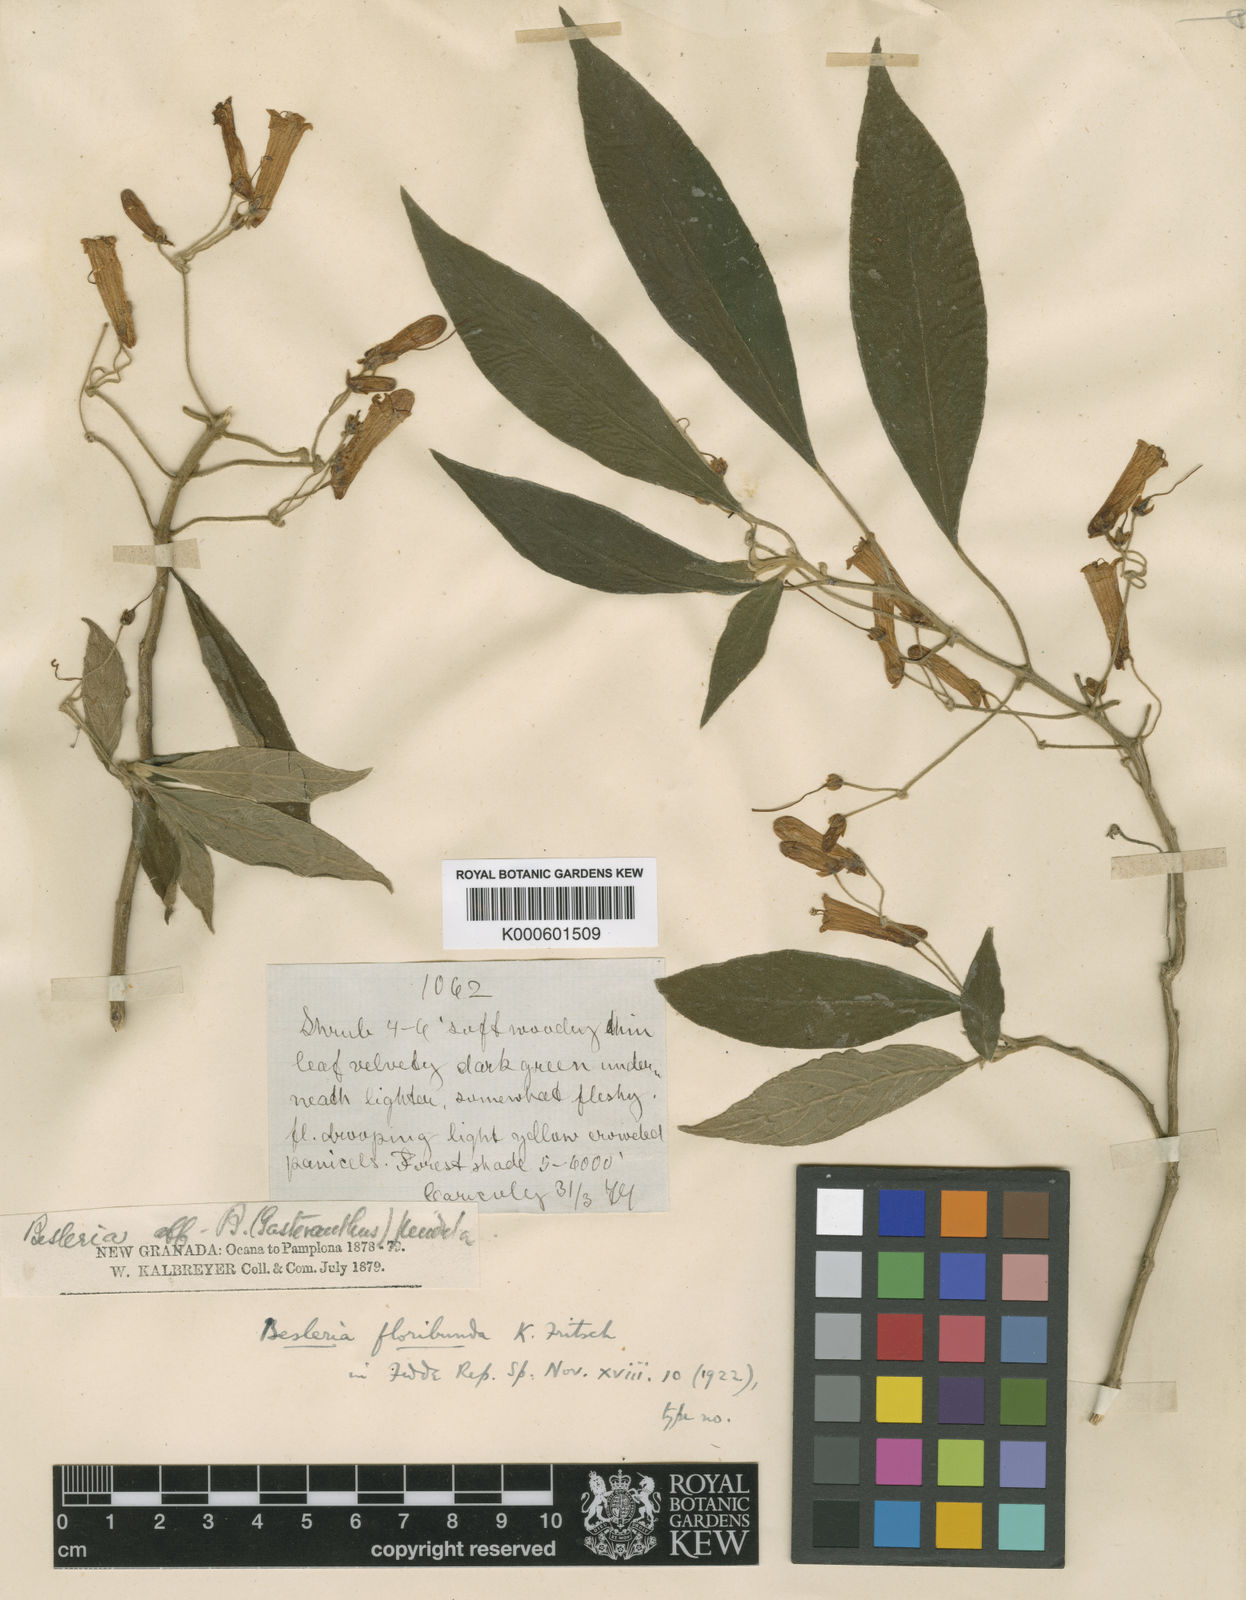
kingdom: Plantae
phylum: Tracheophyta
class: Magnoliopsida
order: Lamiales
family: Gesneriaceae
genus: Besleria
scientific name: Besleria floribunda
